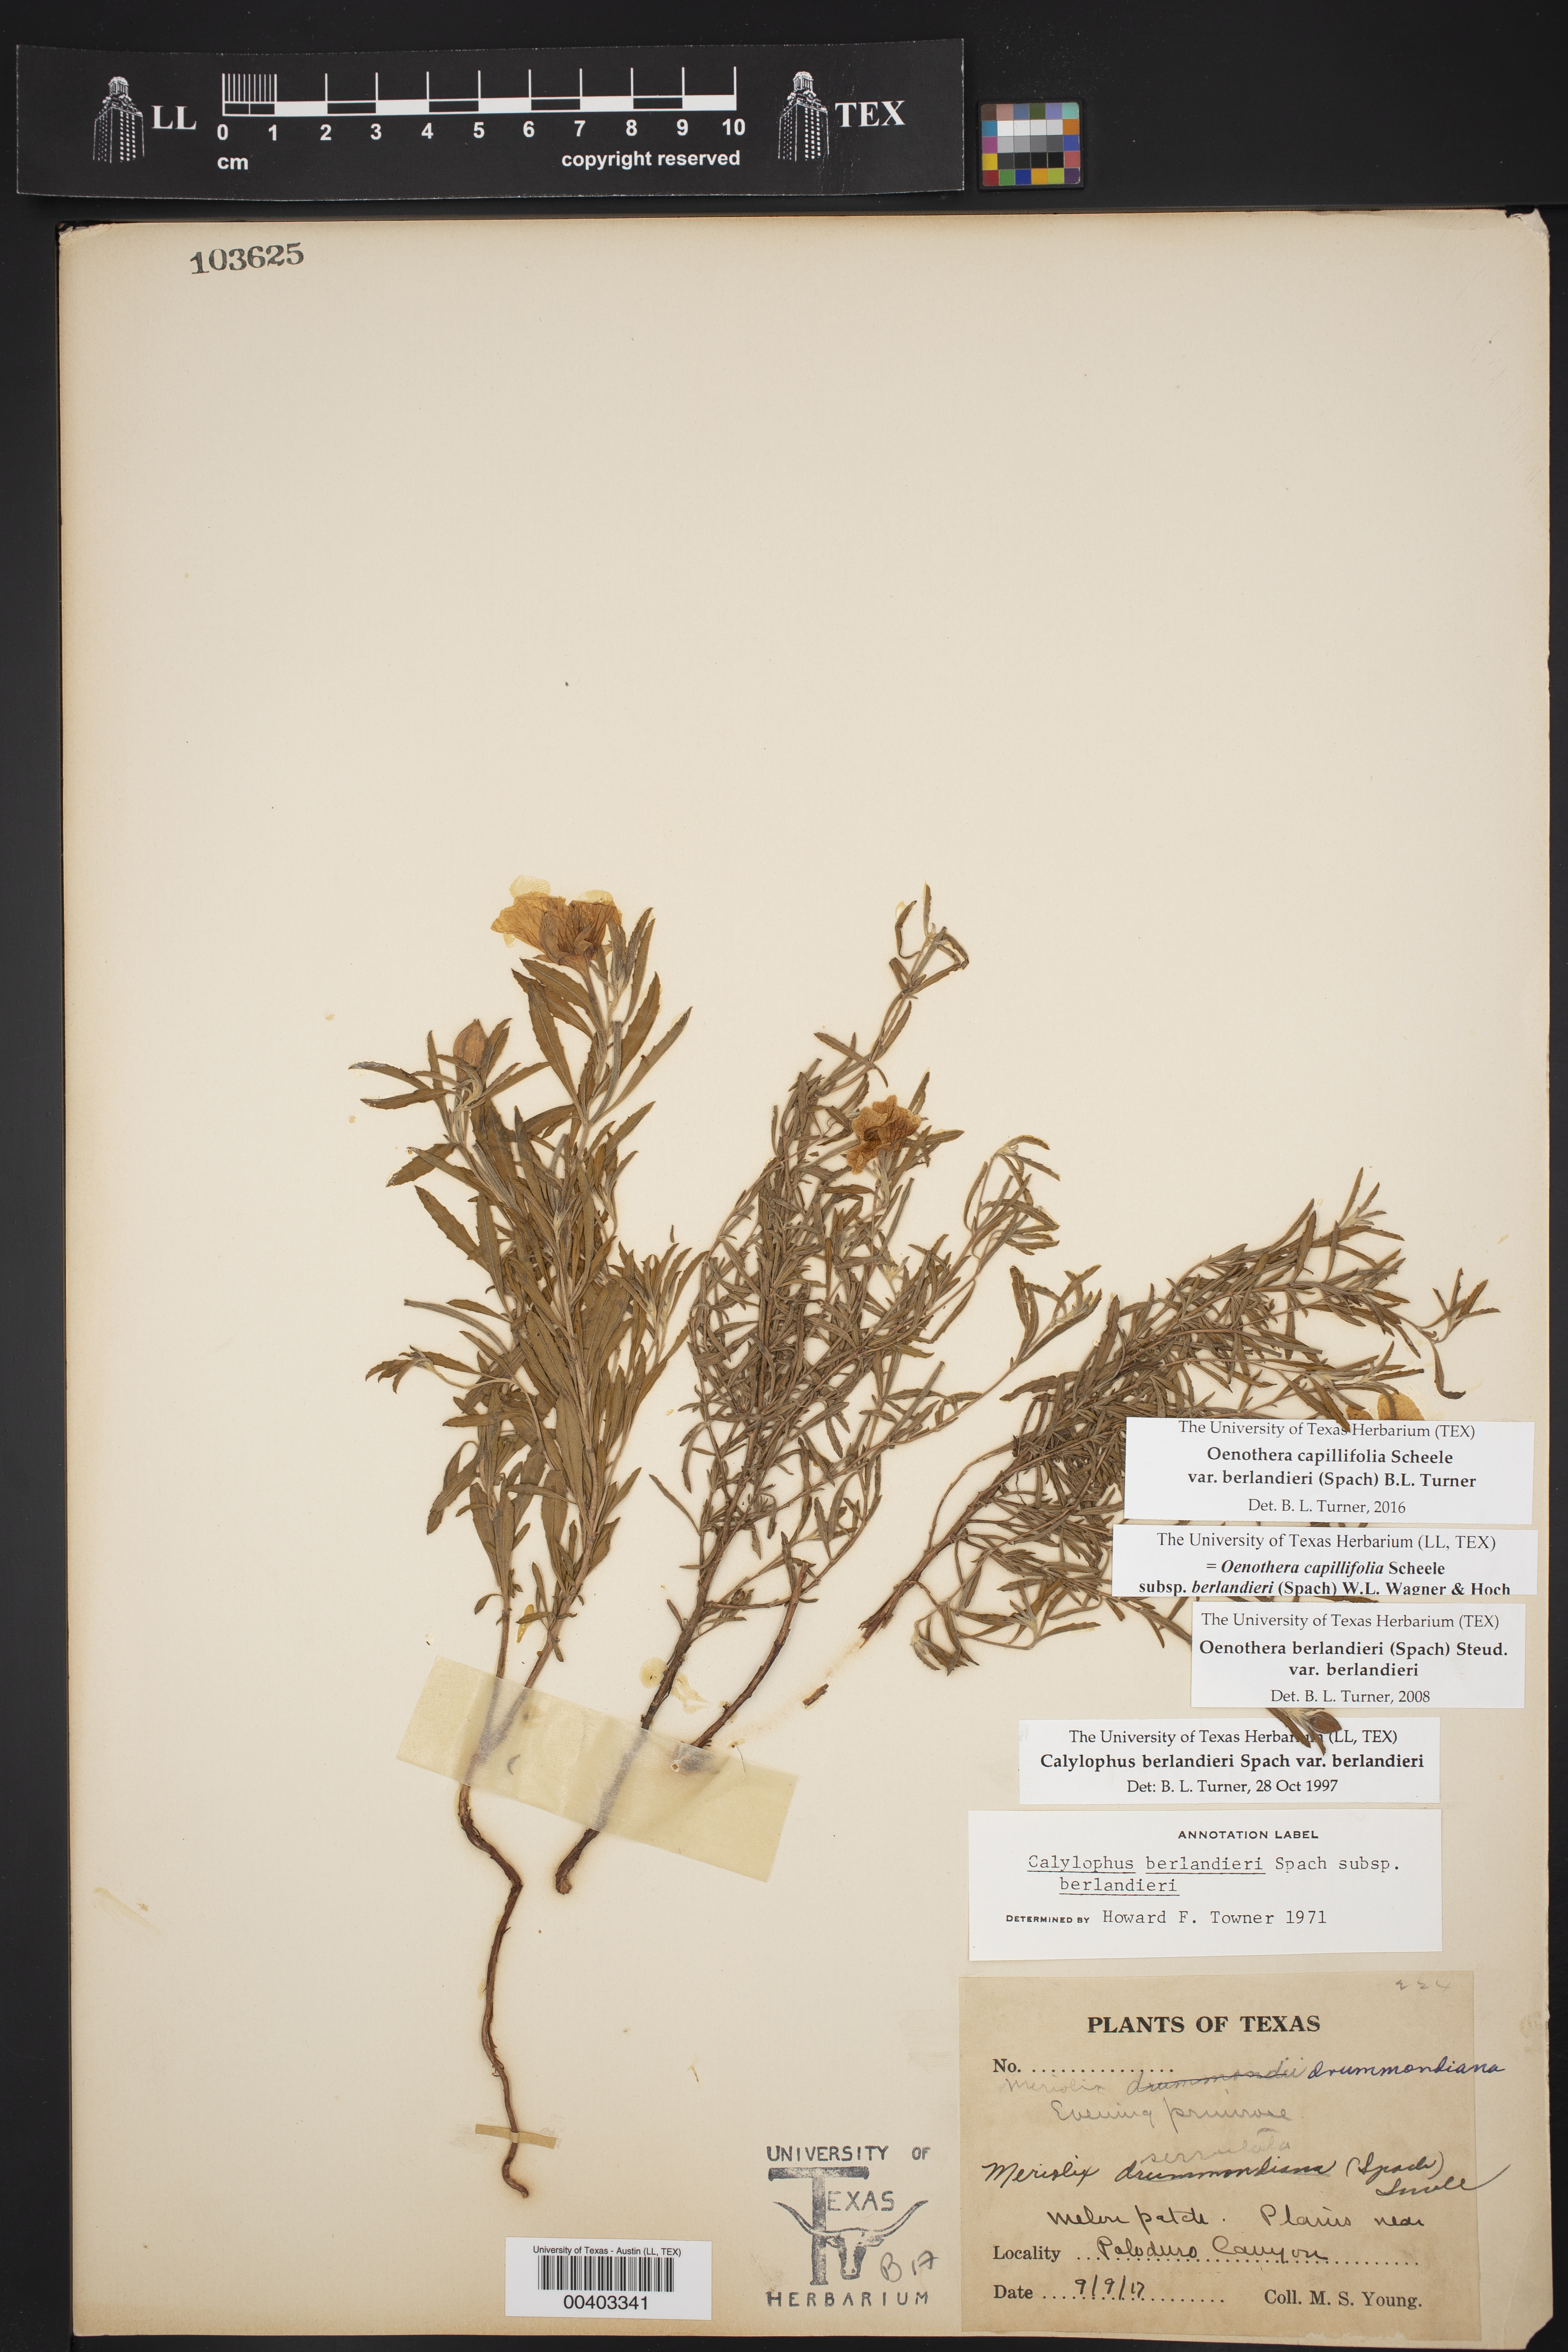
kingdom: Plantae
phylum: Tracheophyta
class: Magnoliopsida
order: Myrtales
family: Onagraceae
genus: Oenothera
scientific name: Oenothera capillifolia
